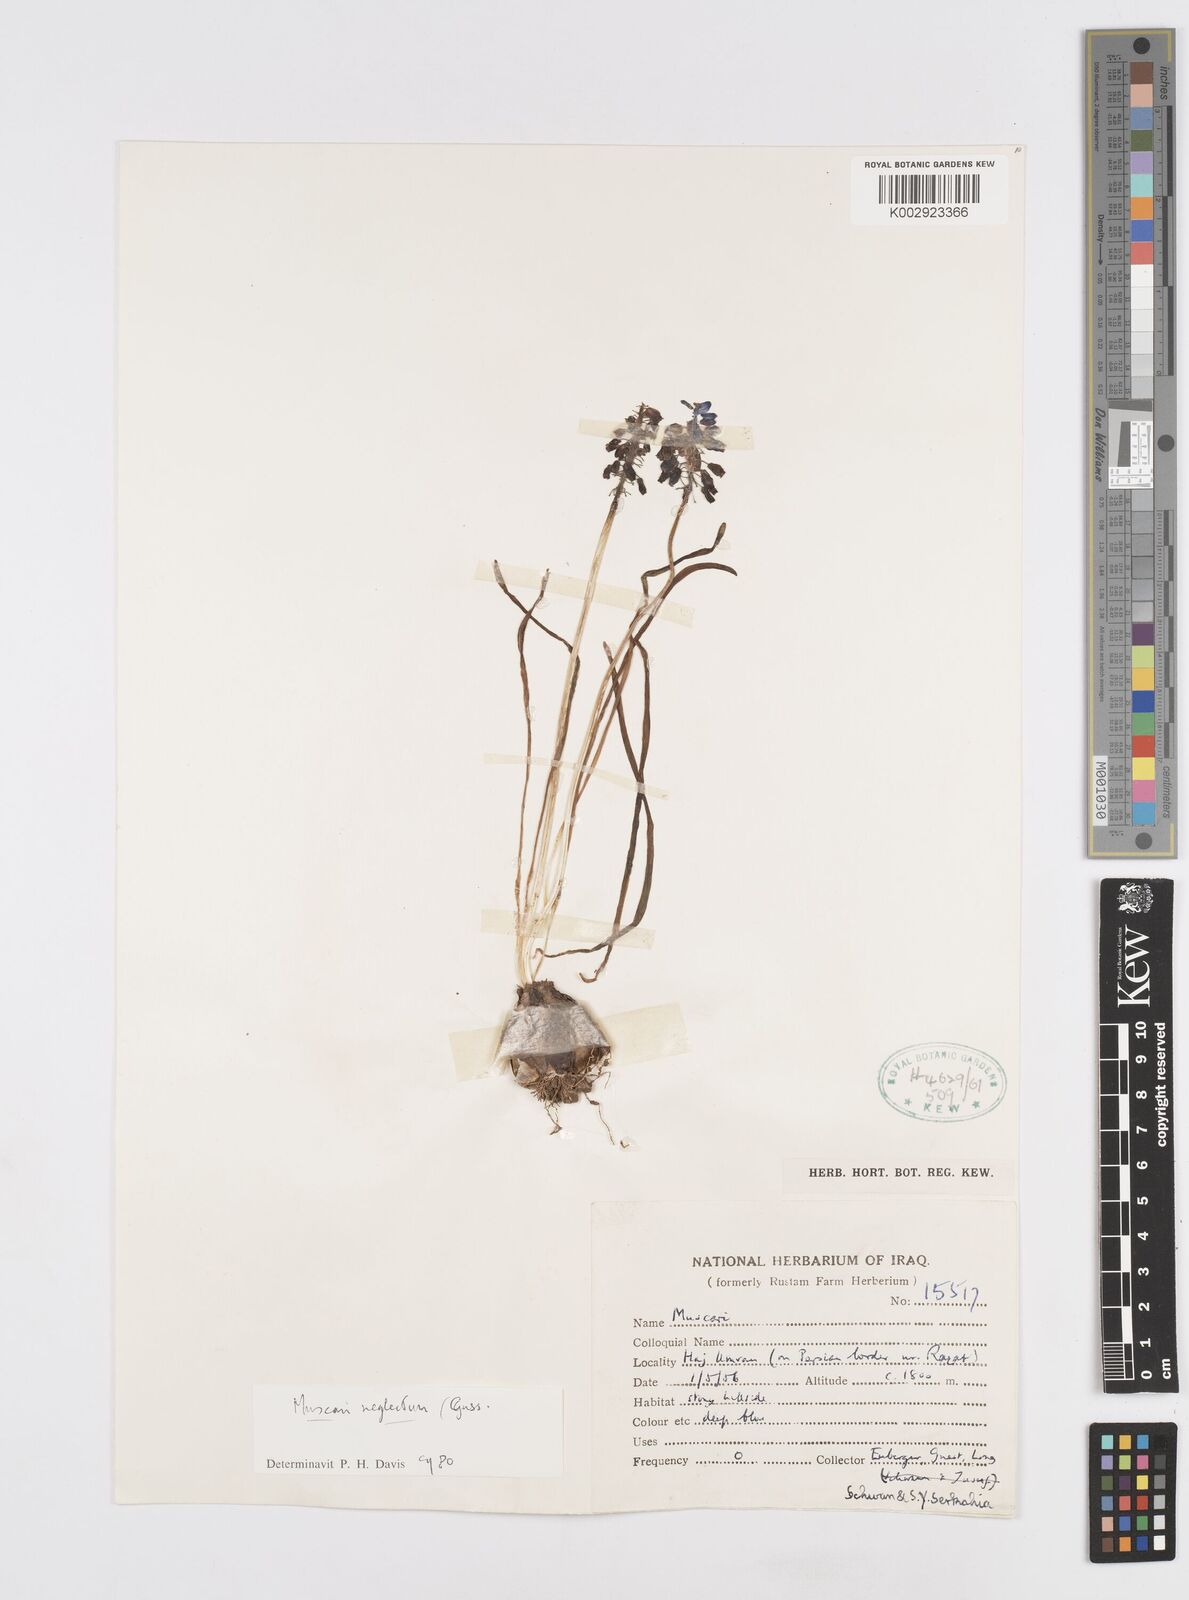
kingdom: Plantae
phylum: Tracheophyta
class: Liliopsida
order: Asparagales
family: Asparagaceae
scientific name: Asparagaceae
